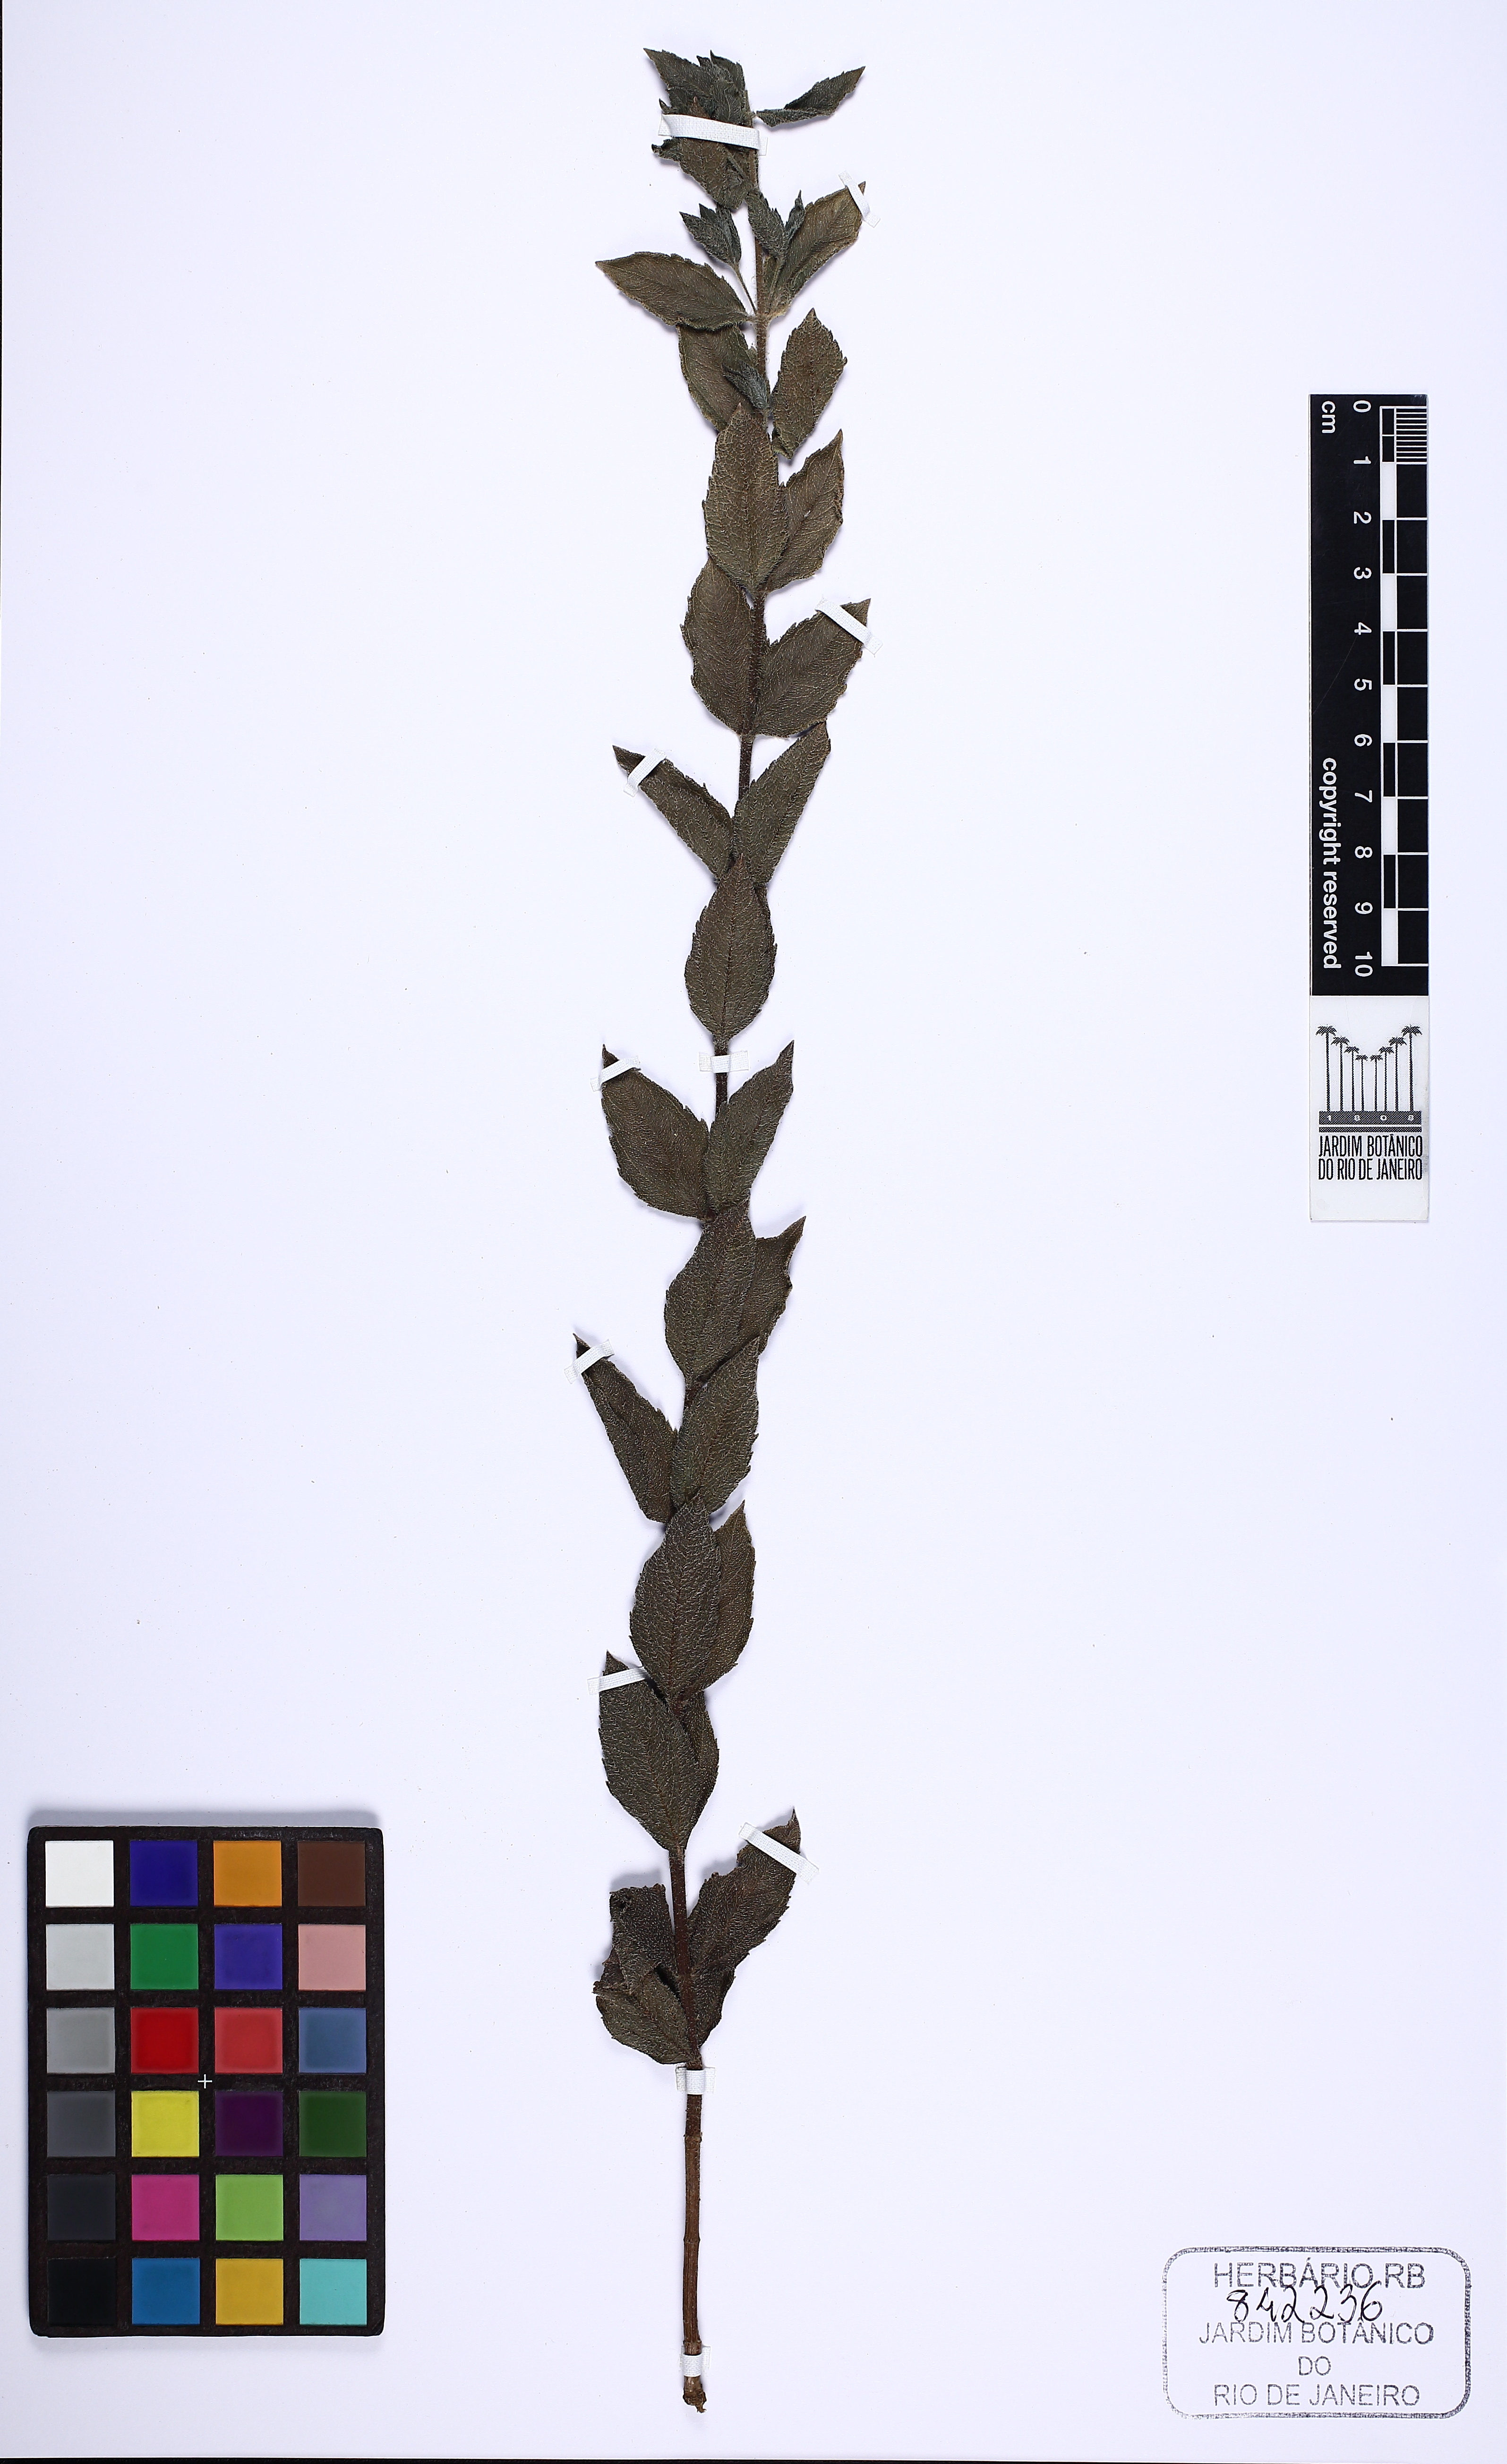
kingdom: Plantae
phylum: Tracheophyta
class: Magnoliopsida
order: Asterales
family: Asteraceae
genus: Dimerostemma
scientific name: Dimerostemma lippioides
